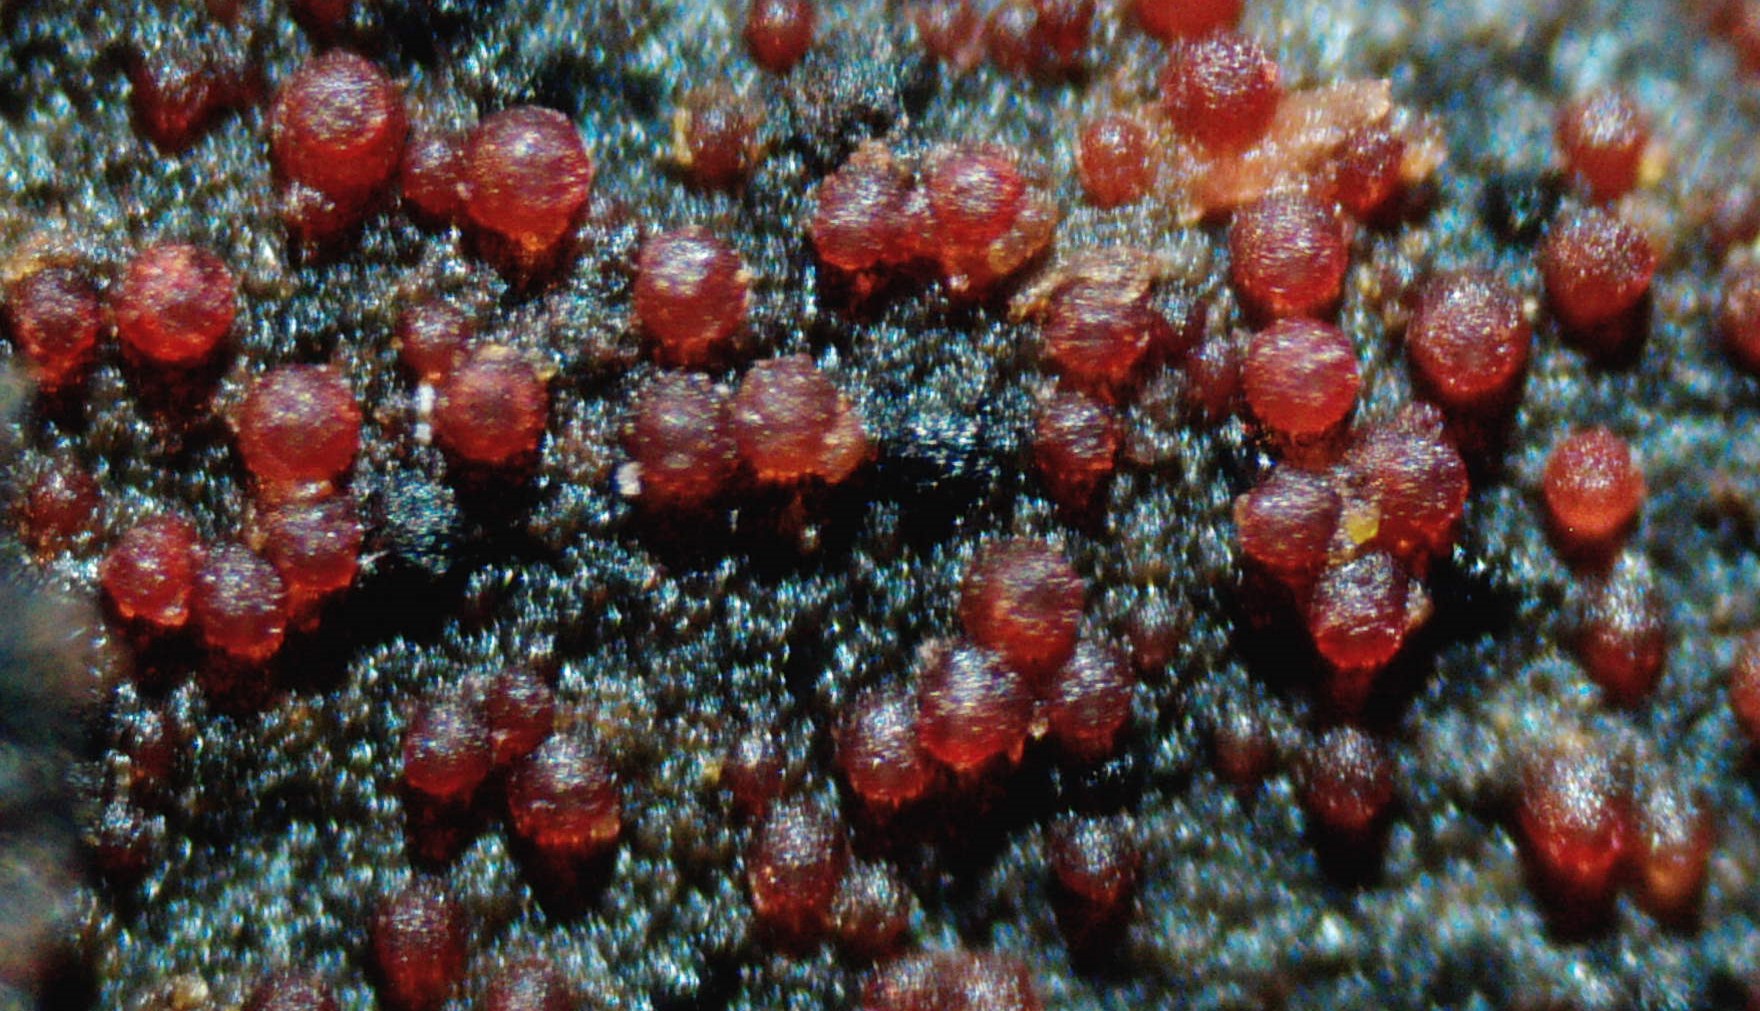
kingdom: Fungi
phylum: Ascomycota
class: Sordariomycetes
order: Hypocreales
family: Nectriaceae
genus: Dialonectria
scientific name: Dialonectria episphaeria
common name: kulskorpe-cinnobersvamp
